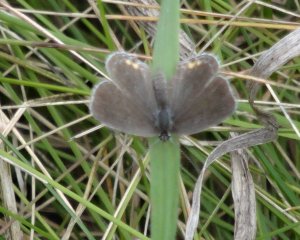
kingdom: Animalia
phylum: Arthropoda
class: Insecta
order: Lepidoptera
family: Lycaenidae
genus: Elkalyce
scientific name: Elkalyce comyntas
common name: Eastern Tailed-Blue
